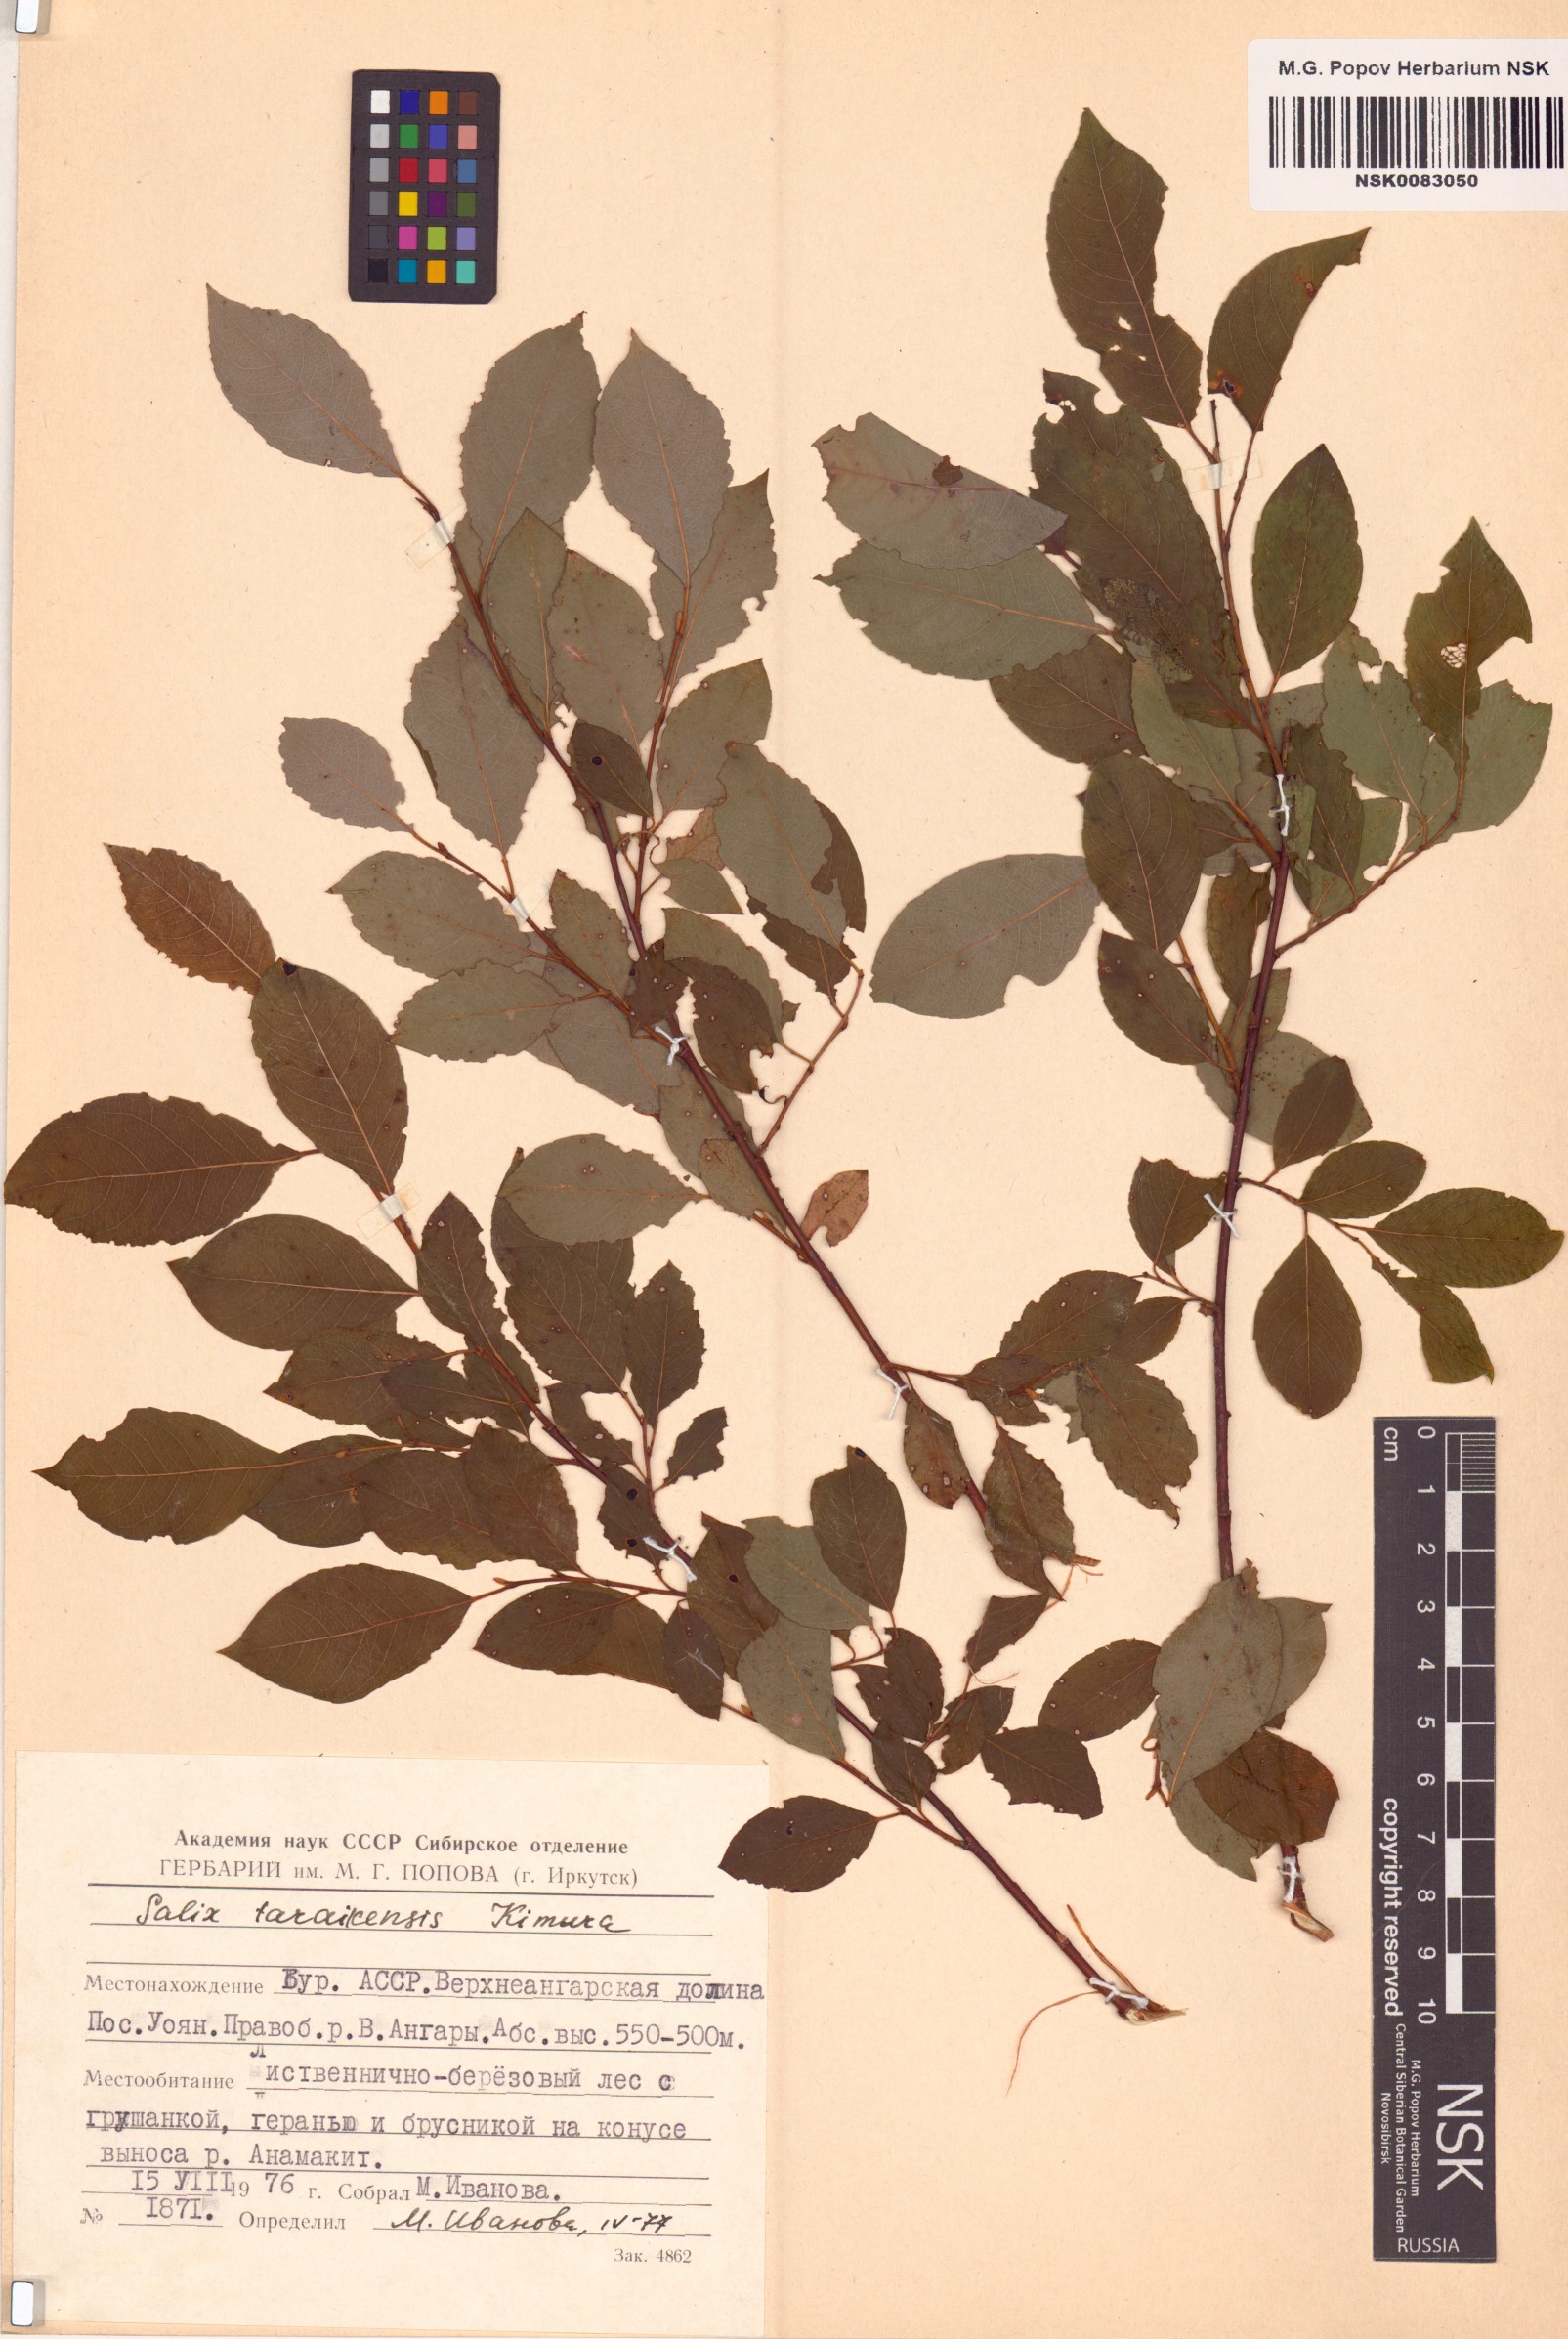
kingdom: Plantae
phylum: Tracheophyta
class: Magnoliopsida
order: Malpighiales
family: Salicaceae
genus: Salix
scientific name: Salix taraikensis
